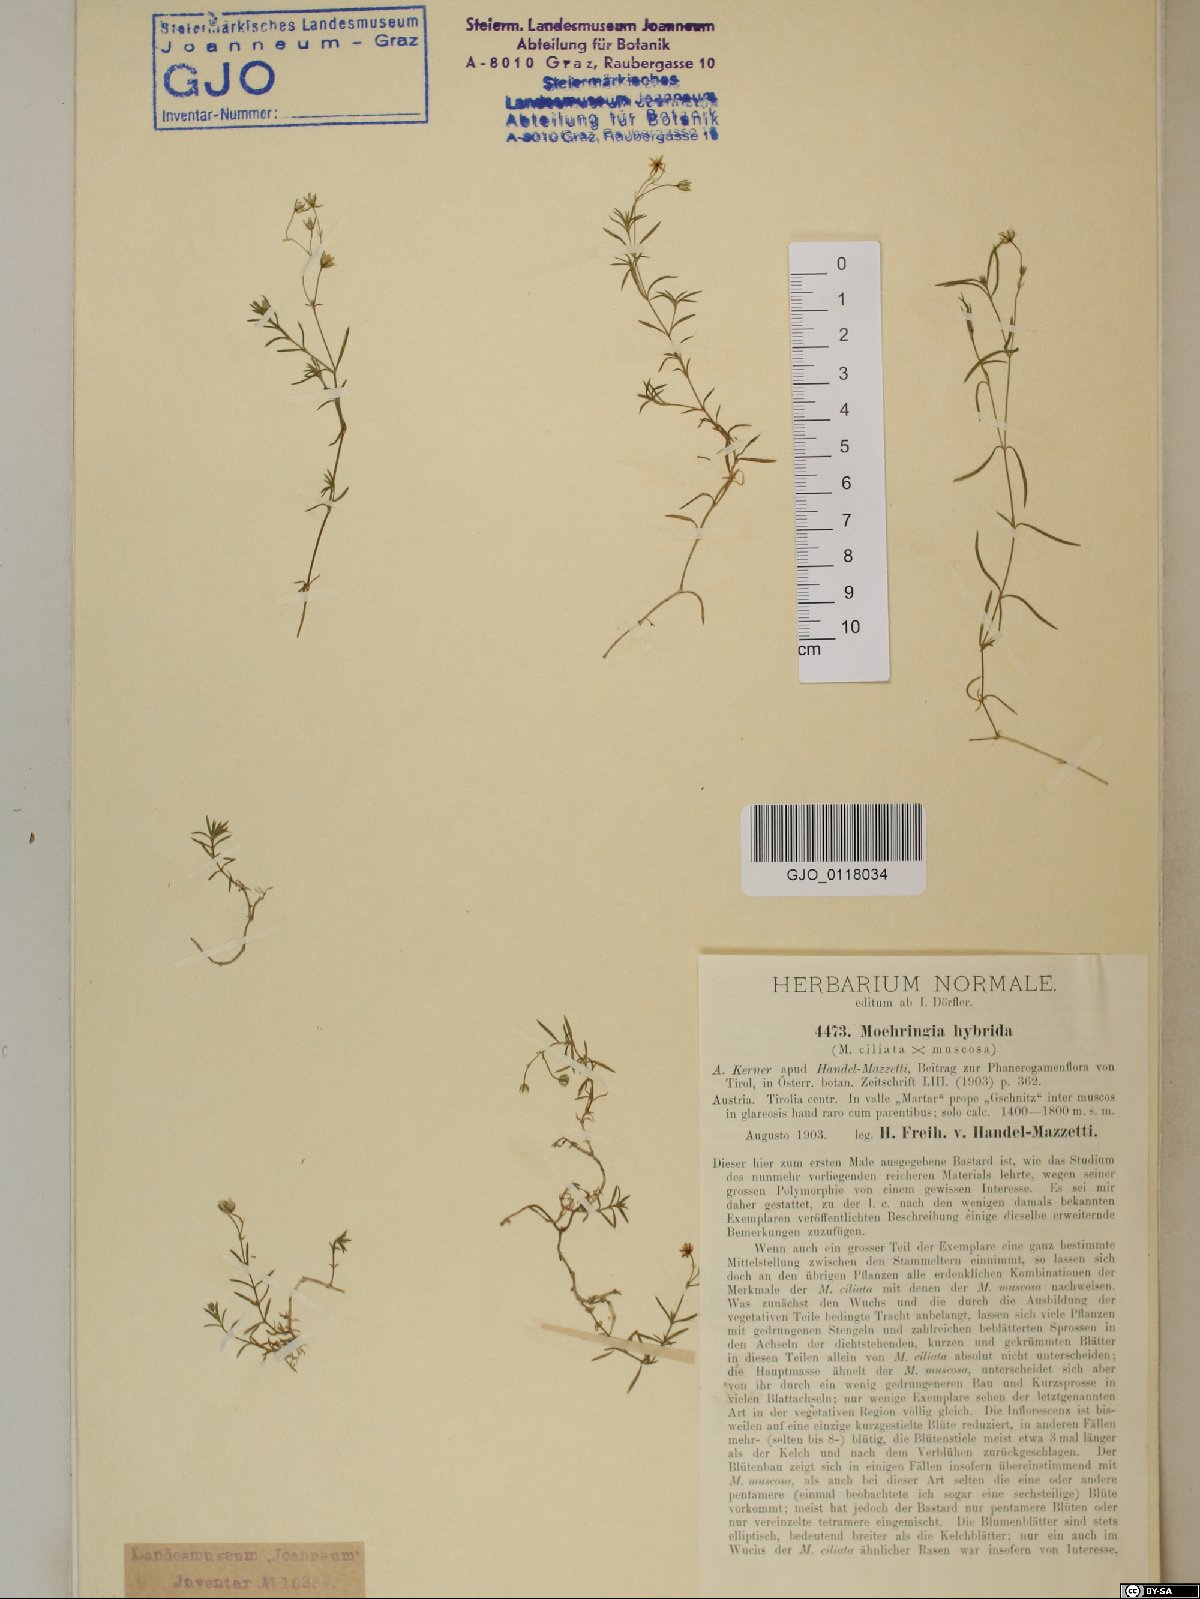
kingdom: Plantae
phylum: Tracheophyta
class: Magnoliopsida
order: Caryophyllales
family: Caryophyllaceae
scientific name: Caryophyllaceae
